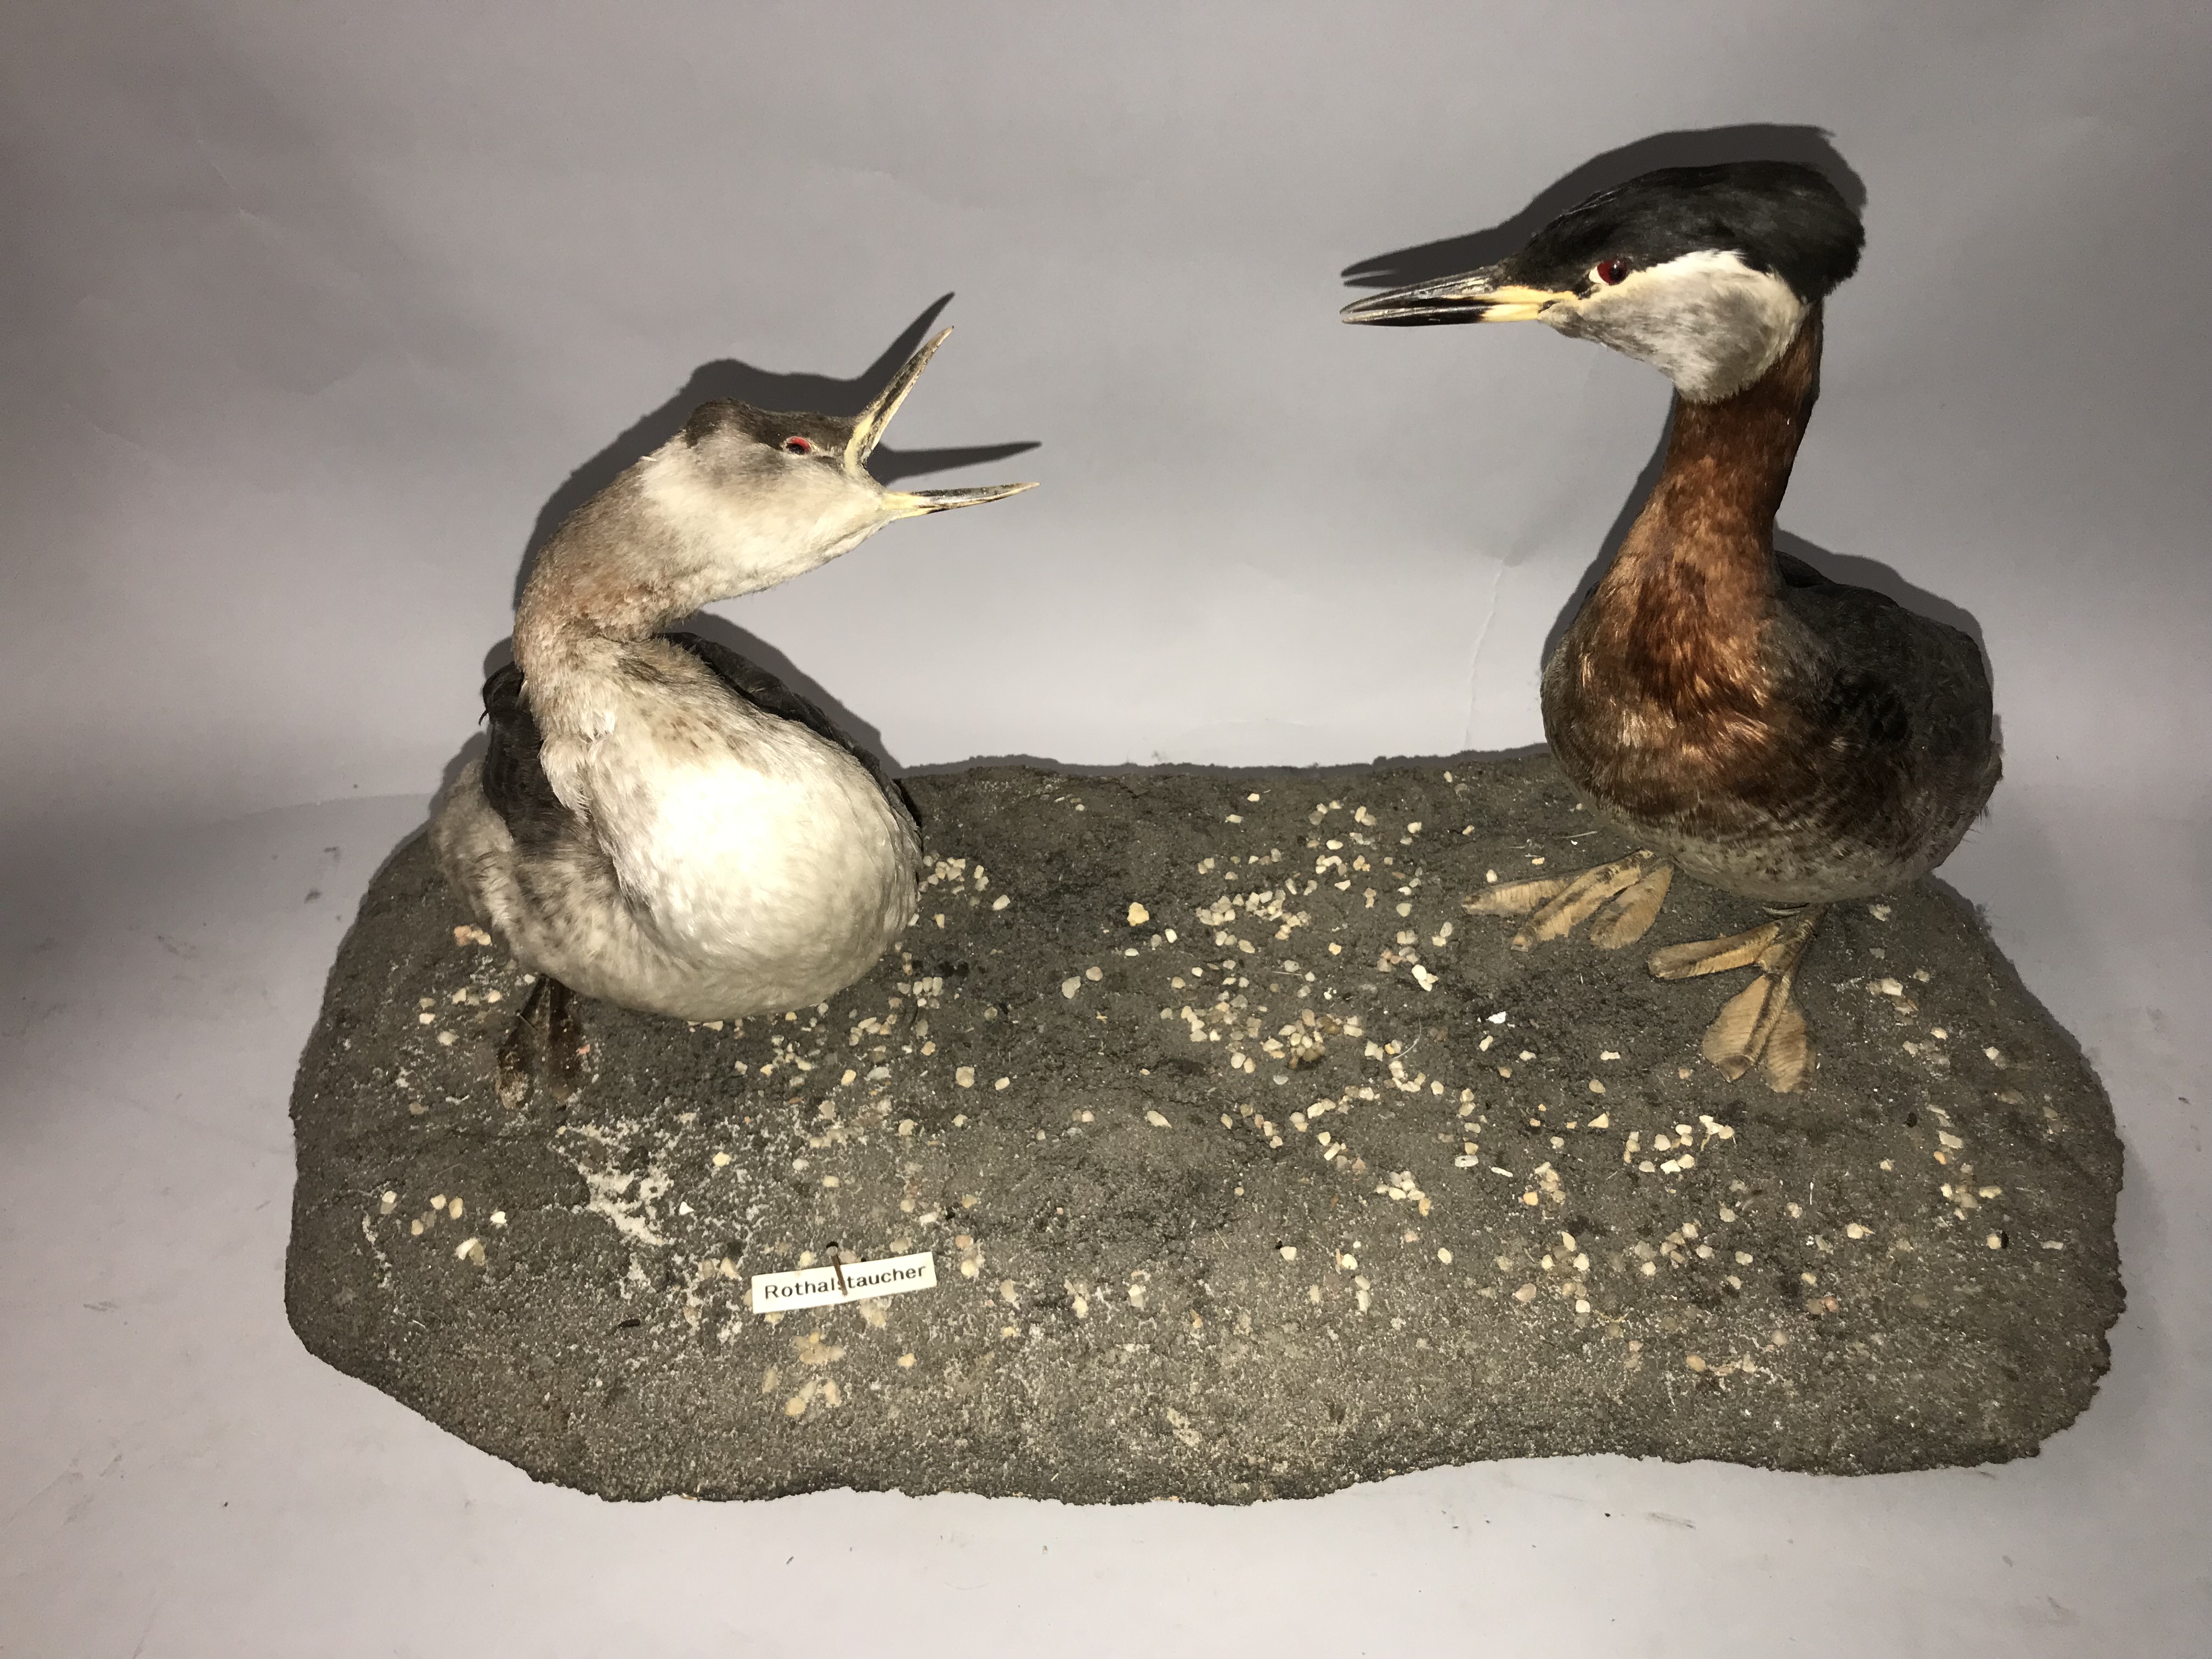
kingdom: Animalia
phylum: Chordata
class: Aves
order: Podicipediformes
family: Podicipedidae
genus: Podiceps
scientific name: Podiceps grisegena
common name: Red-necked grebe
